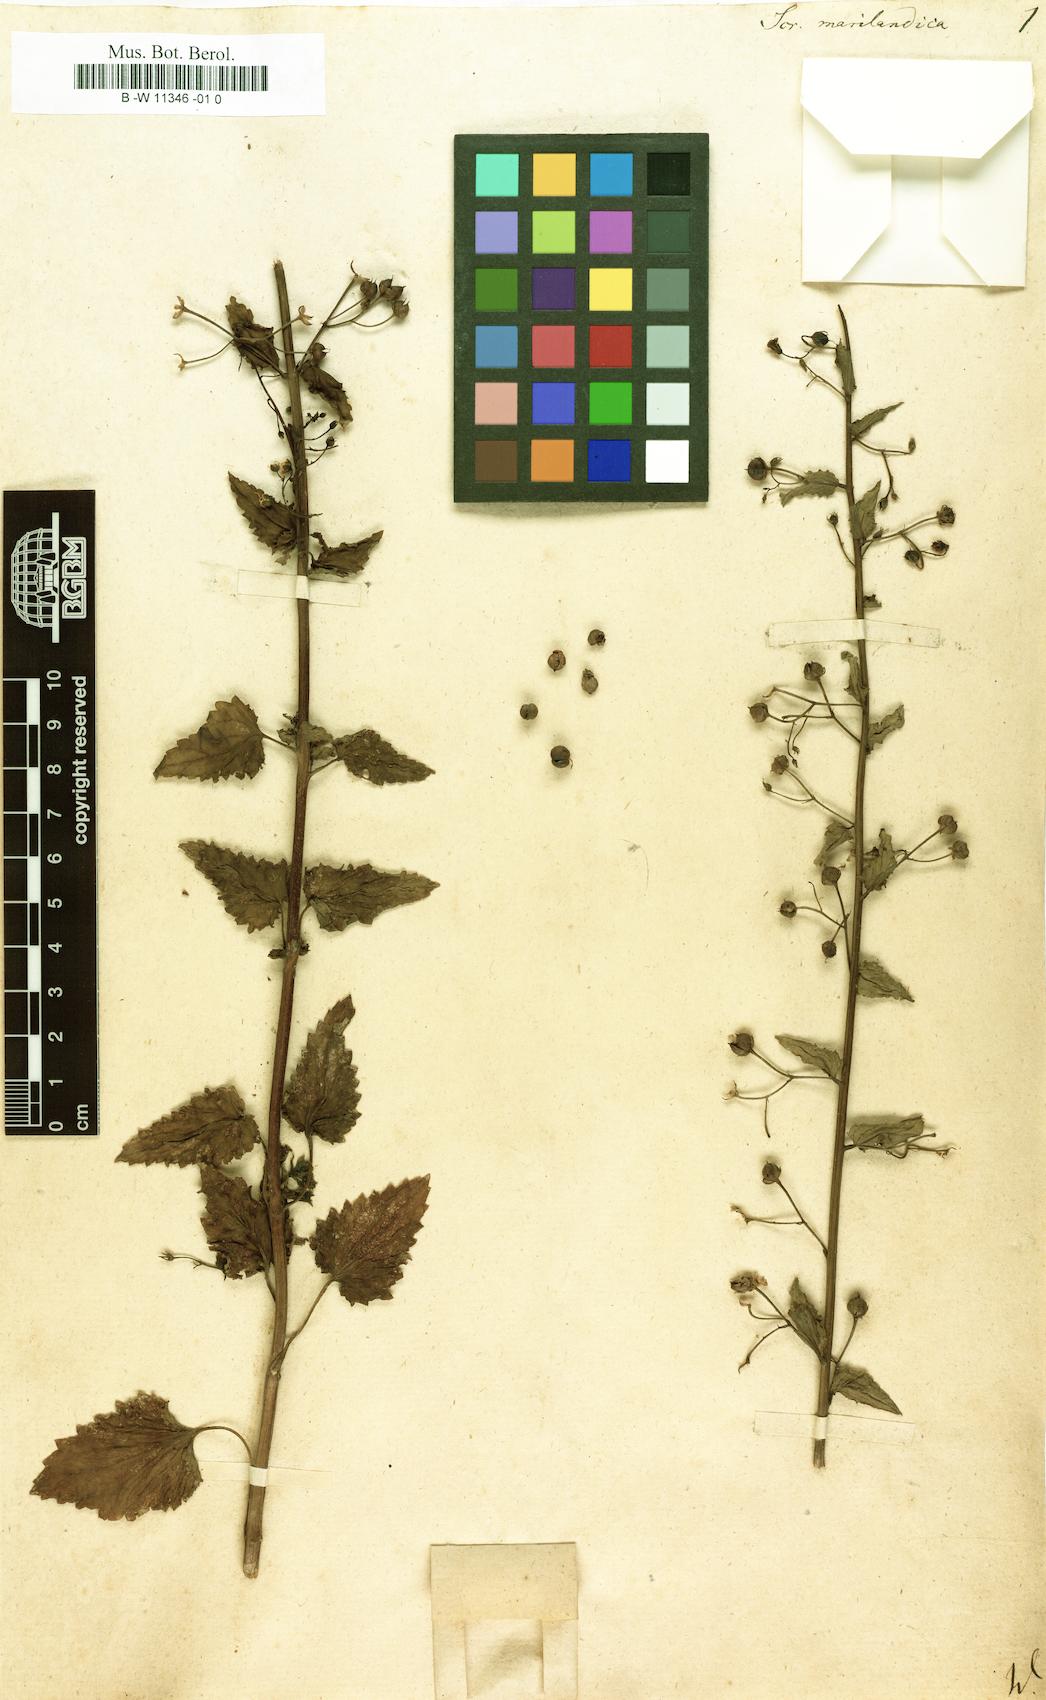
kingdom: Plantae
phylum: Tracheophyta
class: Magnoliopsida
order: Lamiales
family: Scrophulariaceae
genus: Scrophularia
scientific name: Scrophularia marilandica
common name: Eastern figwort
